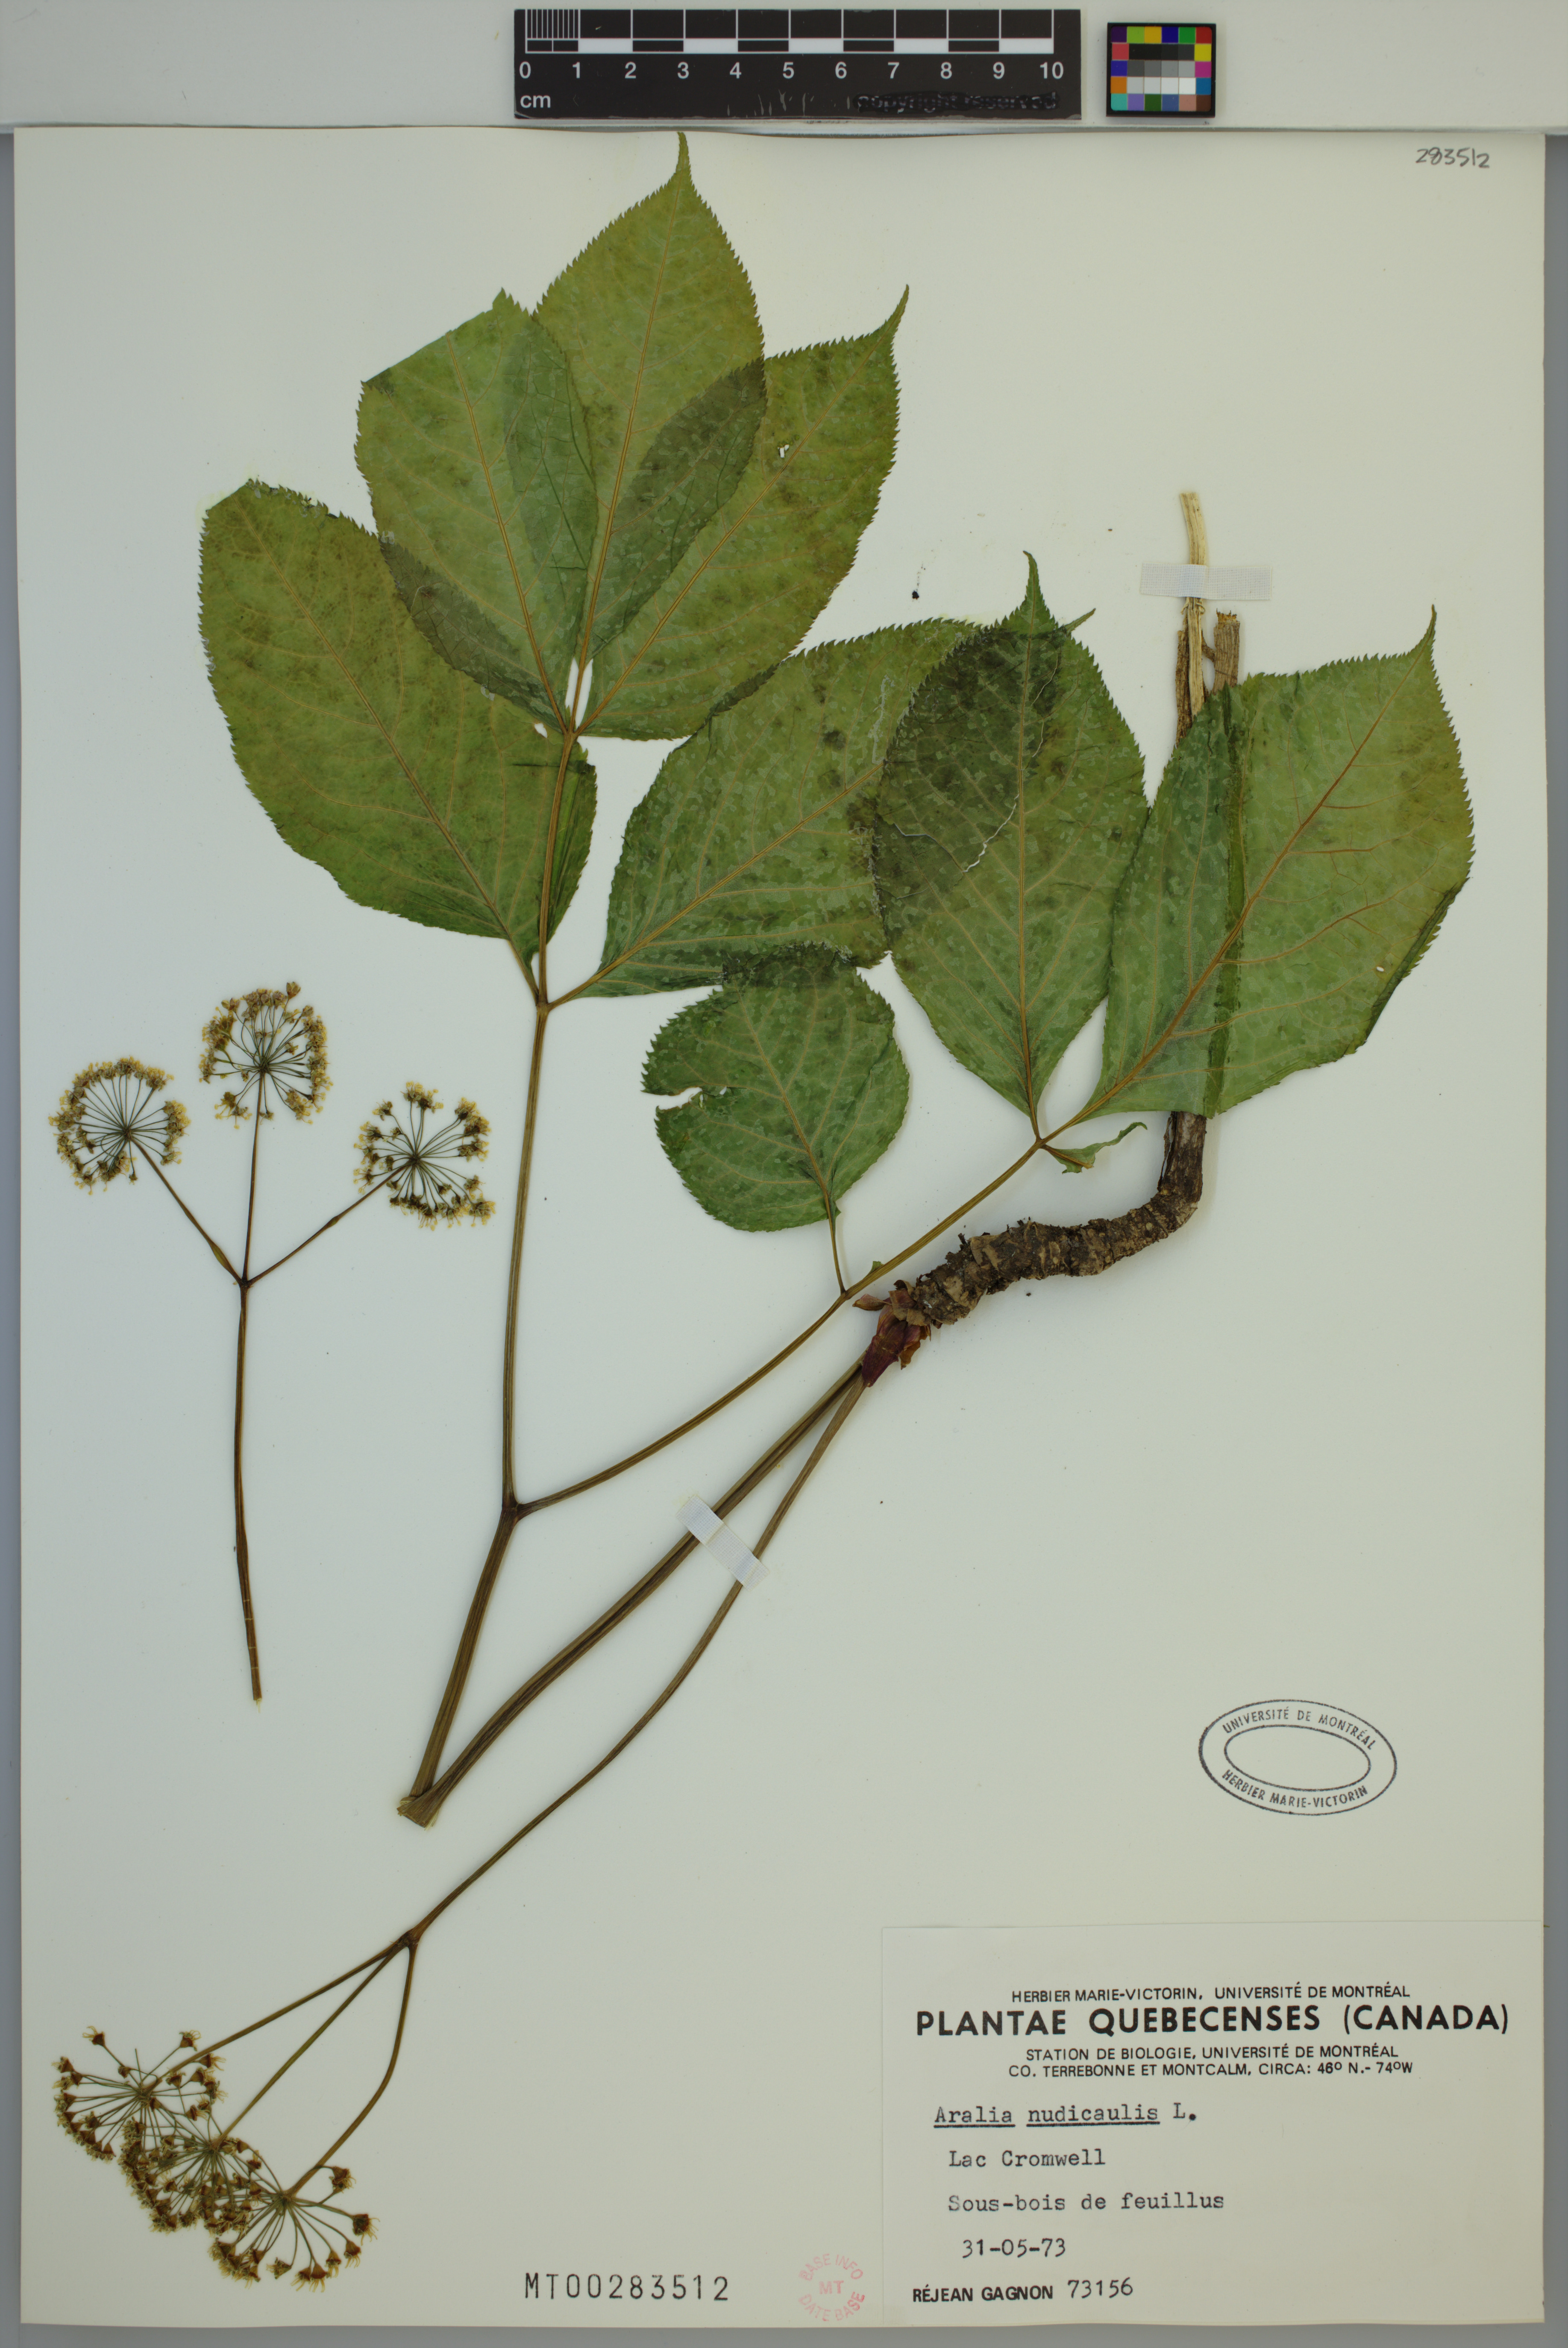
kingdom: Plantae
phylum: Tracheophyta
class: Magnoliopsida
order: Apiales
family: Araliaceae
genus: Aralia
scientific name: Aralia nudicaulis
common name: Wild sarsaparilla
